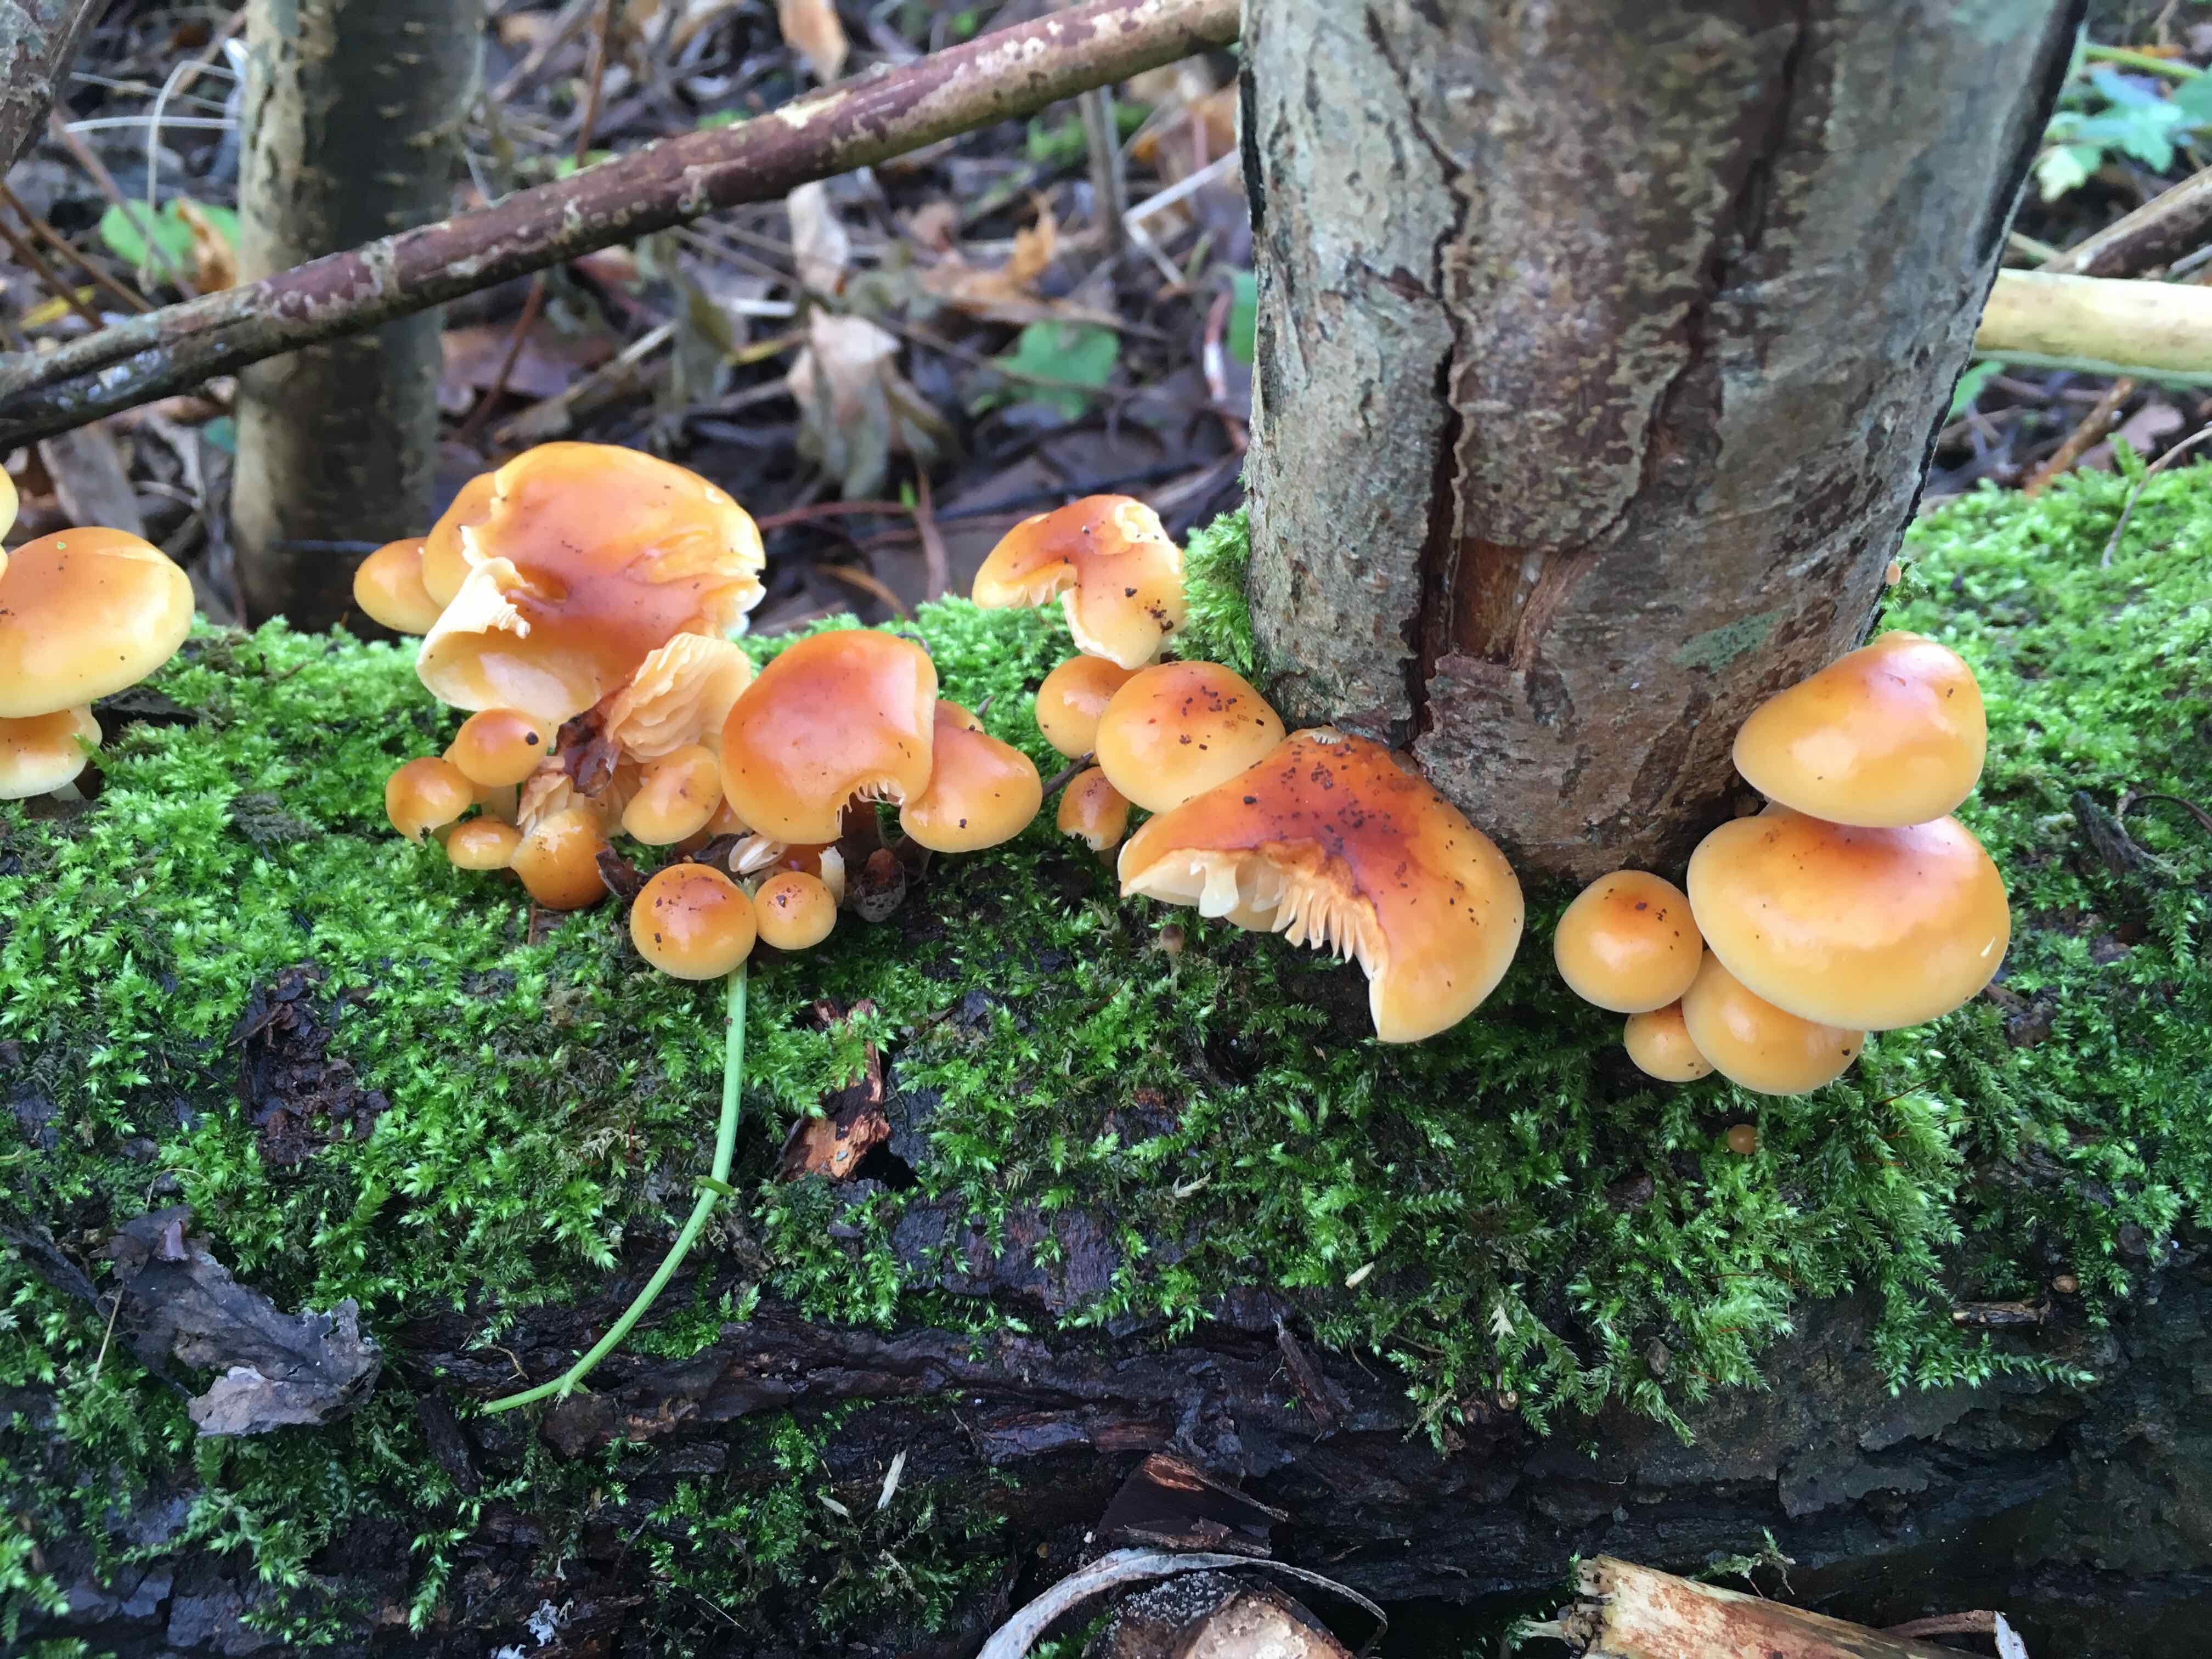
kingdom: Fungi
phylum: Basidiomycota
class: Agaricomycetes
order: Agaricales
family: Physalacriaceae
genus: Flammulina
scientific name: Flammulina
